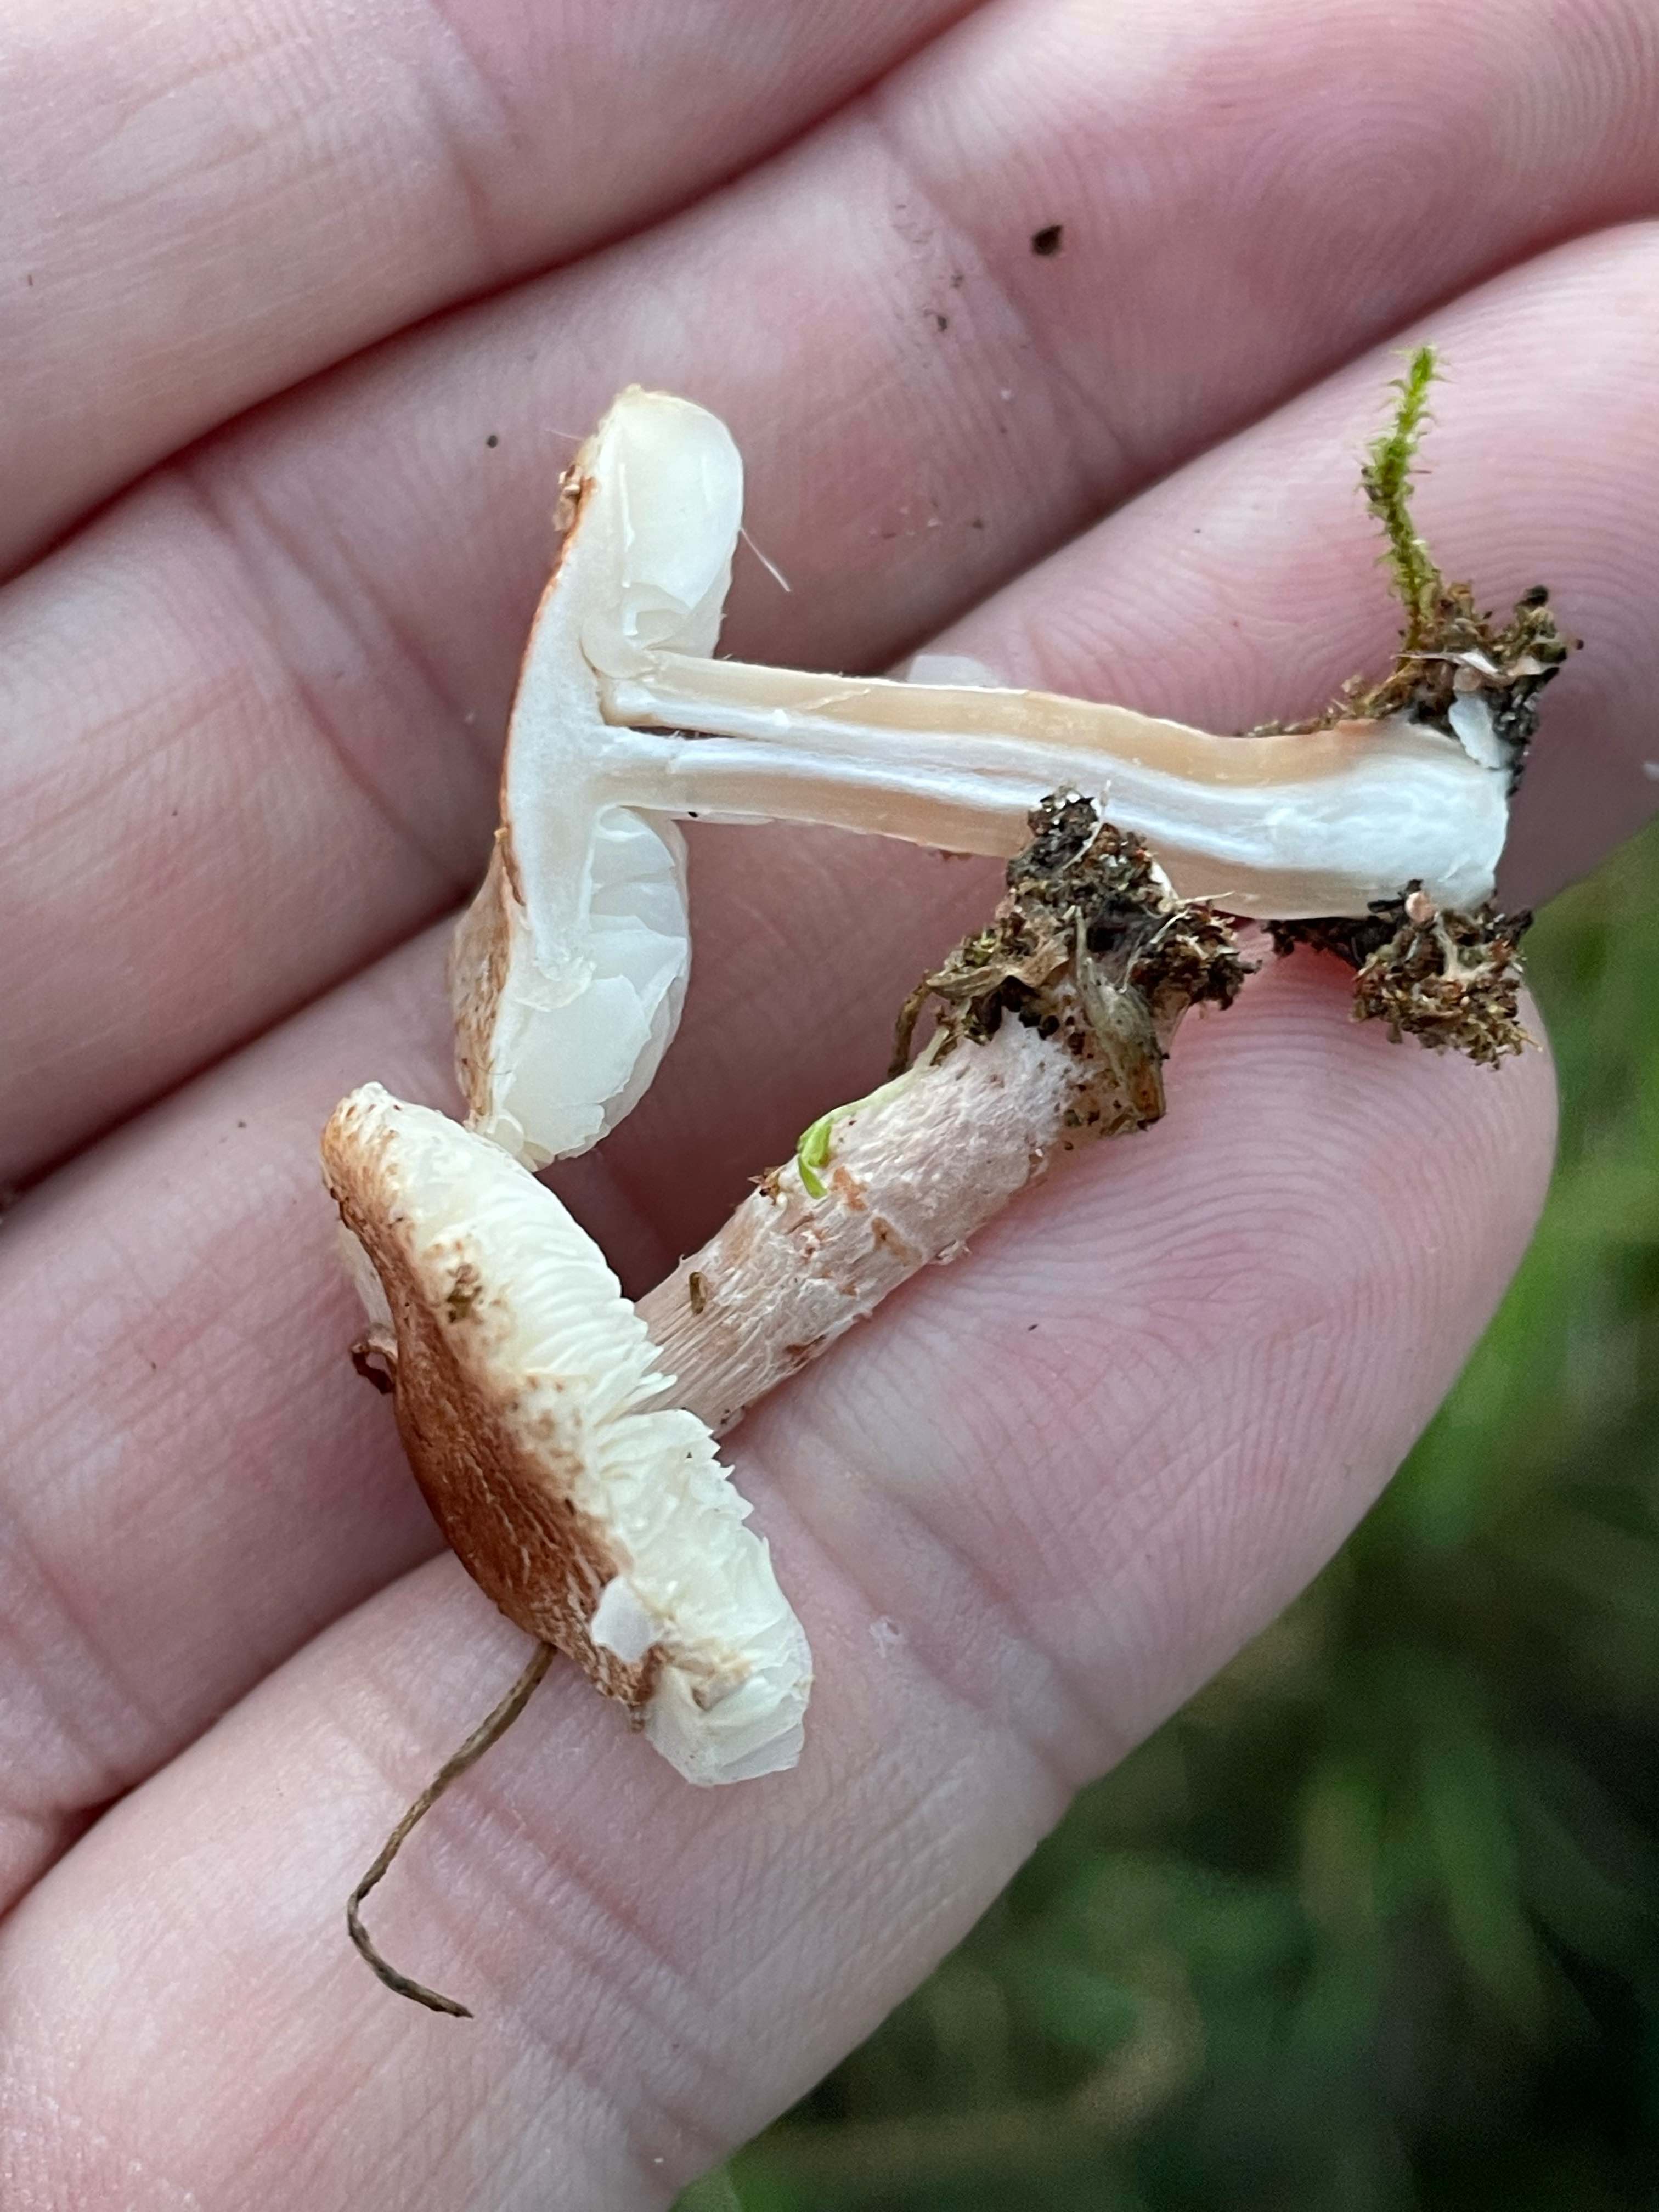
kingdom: Fungi
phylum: Basidiomycota
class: Agaricomycetes
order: Agaricales
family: Agaricaceae
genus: Lepiota
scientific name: Lepiota subincarnata
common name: kødfarvet parasolhat
